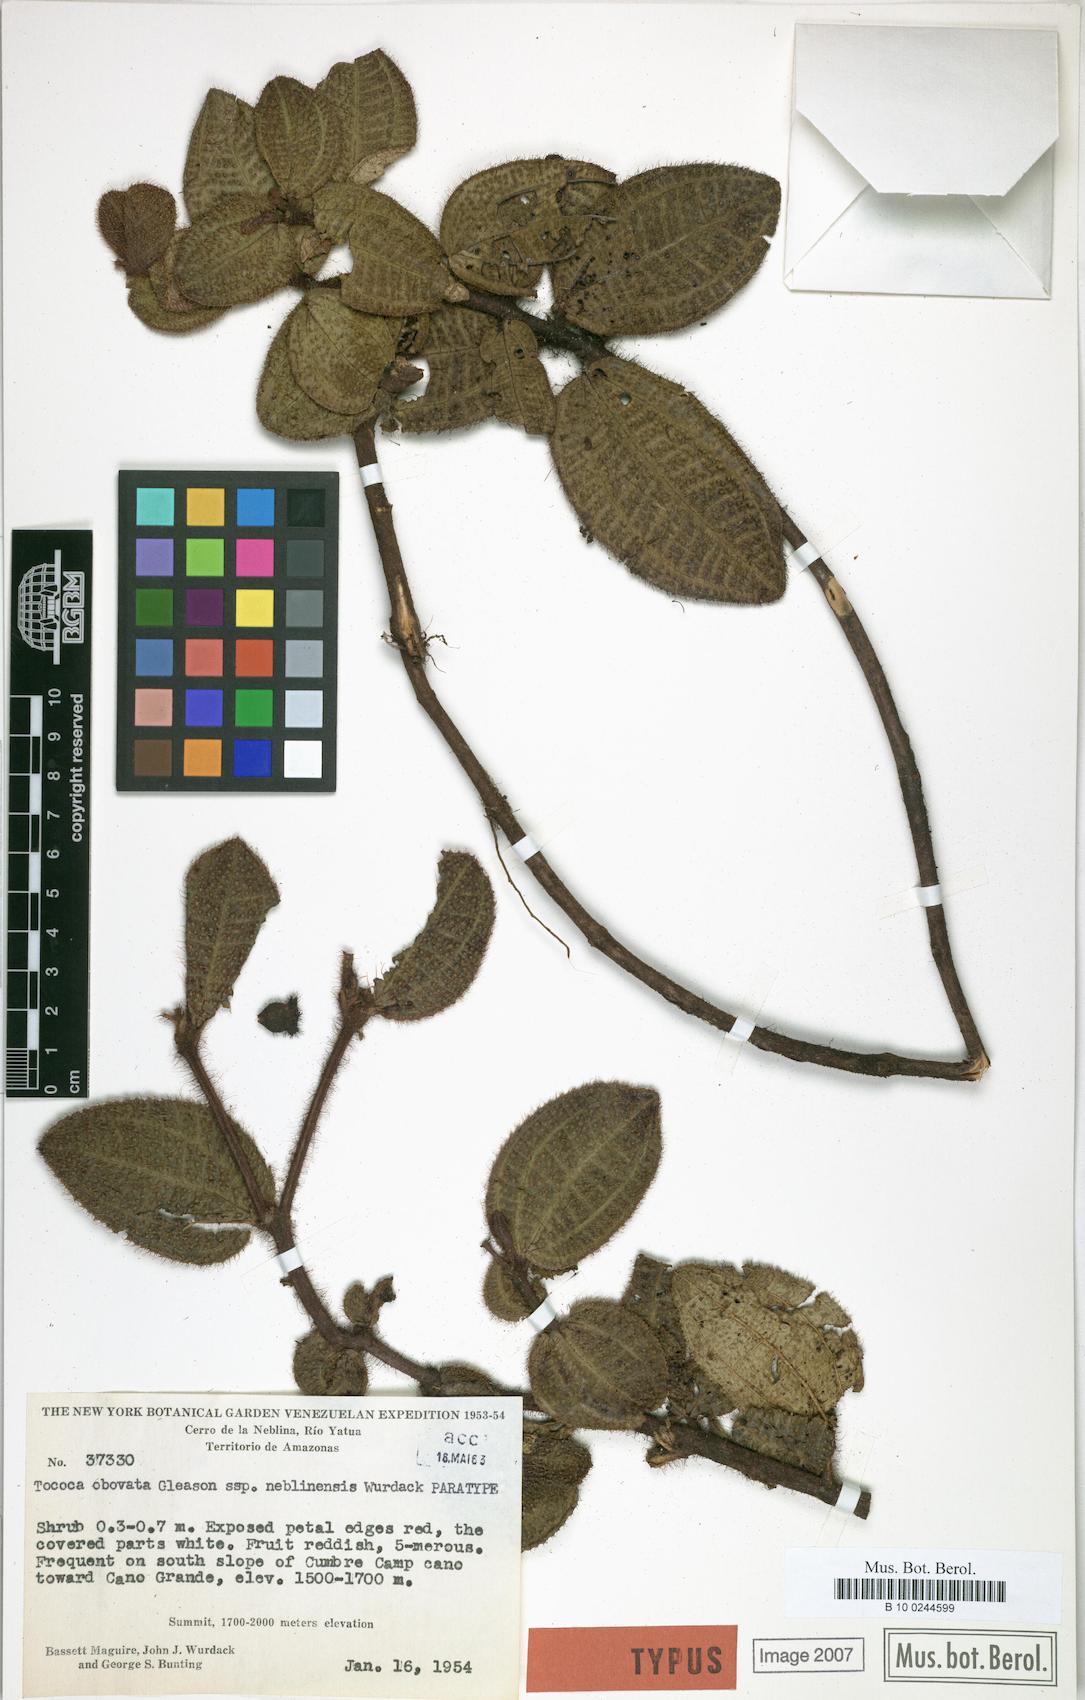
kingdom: Plantae
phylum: Tracheophyta
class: Magnoliopsida
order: Myrtales
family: Melastomataceae
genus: Miconia
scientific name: Miconia tocobovata
